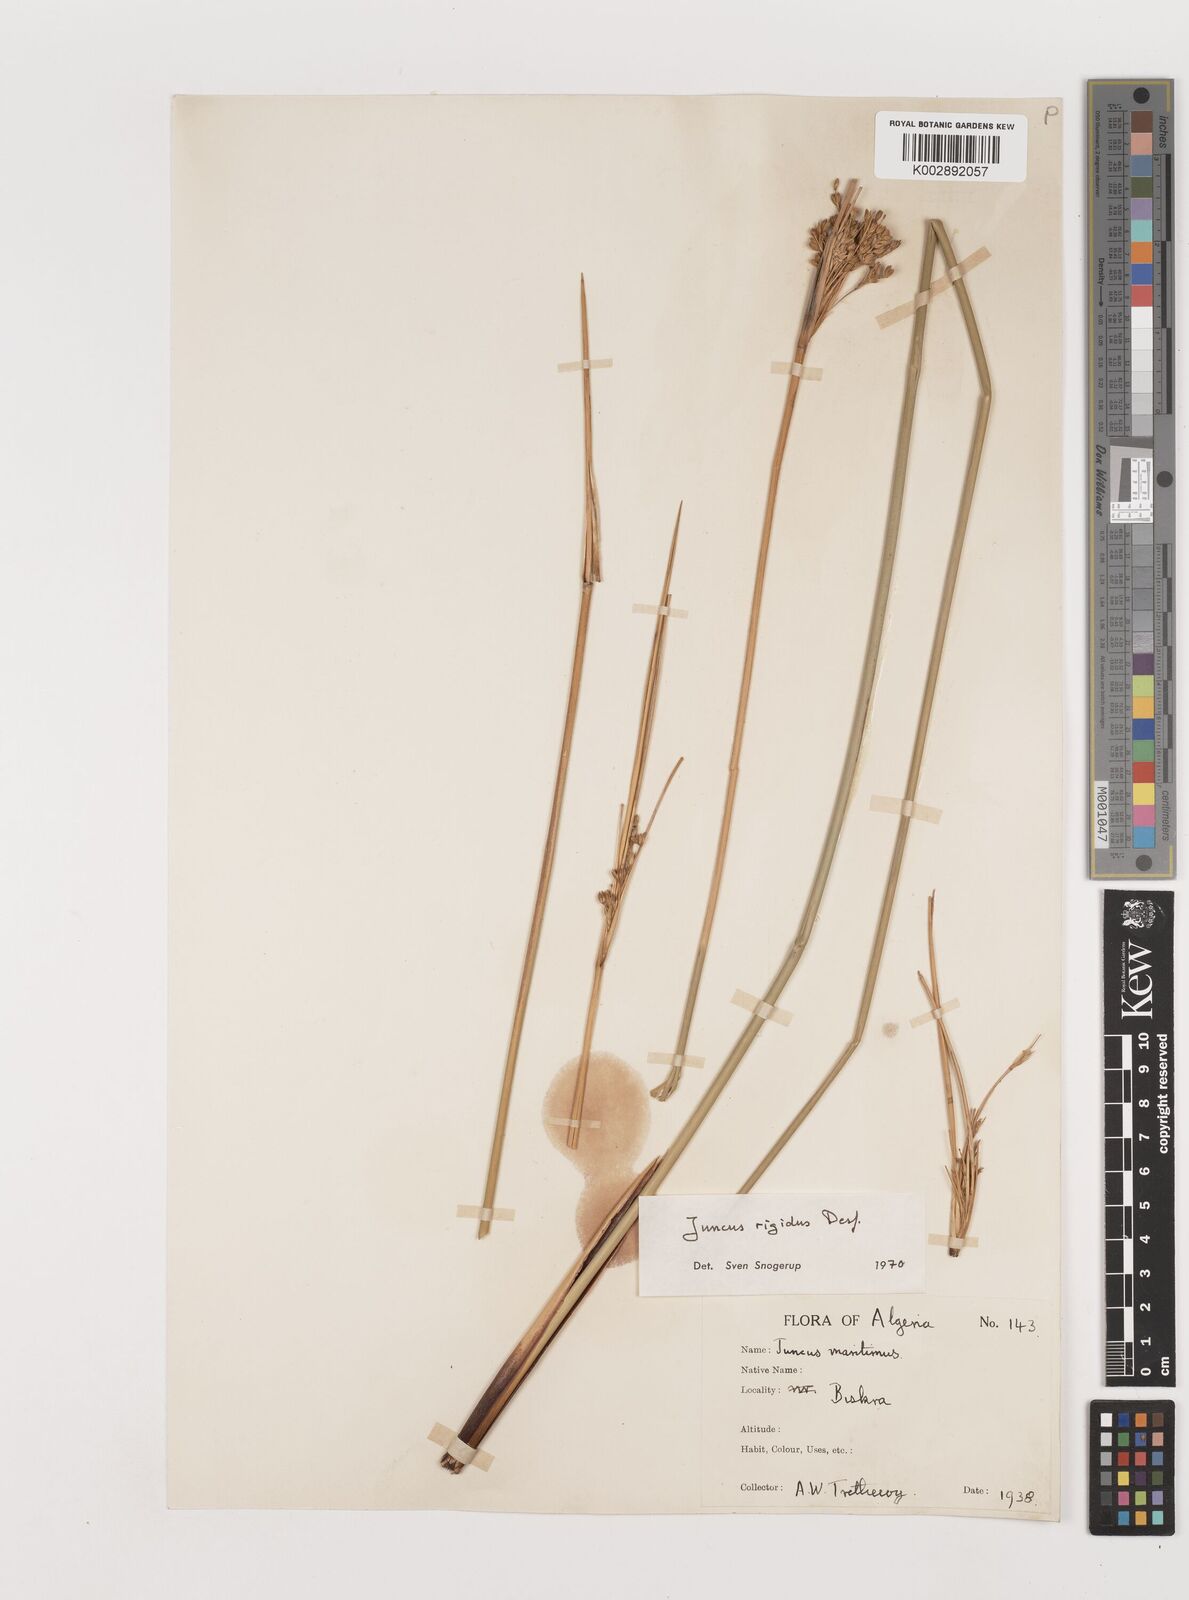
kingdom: Plantae
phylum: Tracheophyta
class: Liliopsida
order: Poales
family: Juncaceae
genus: Juncus
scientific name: Juncus rigidus
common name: Hard sea rush
